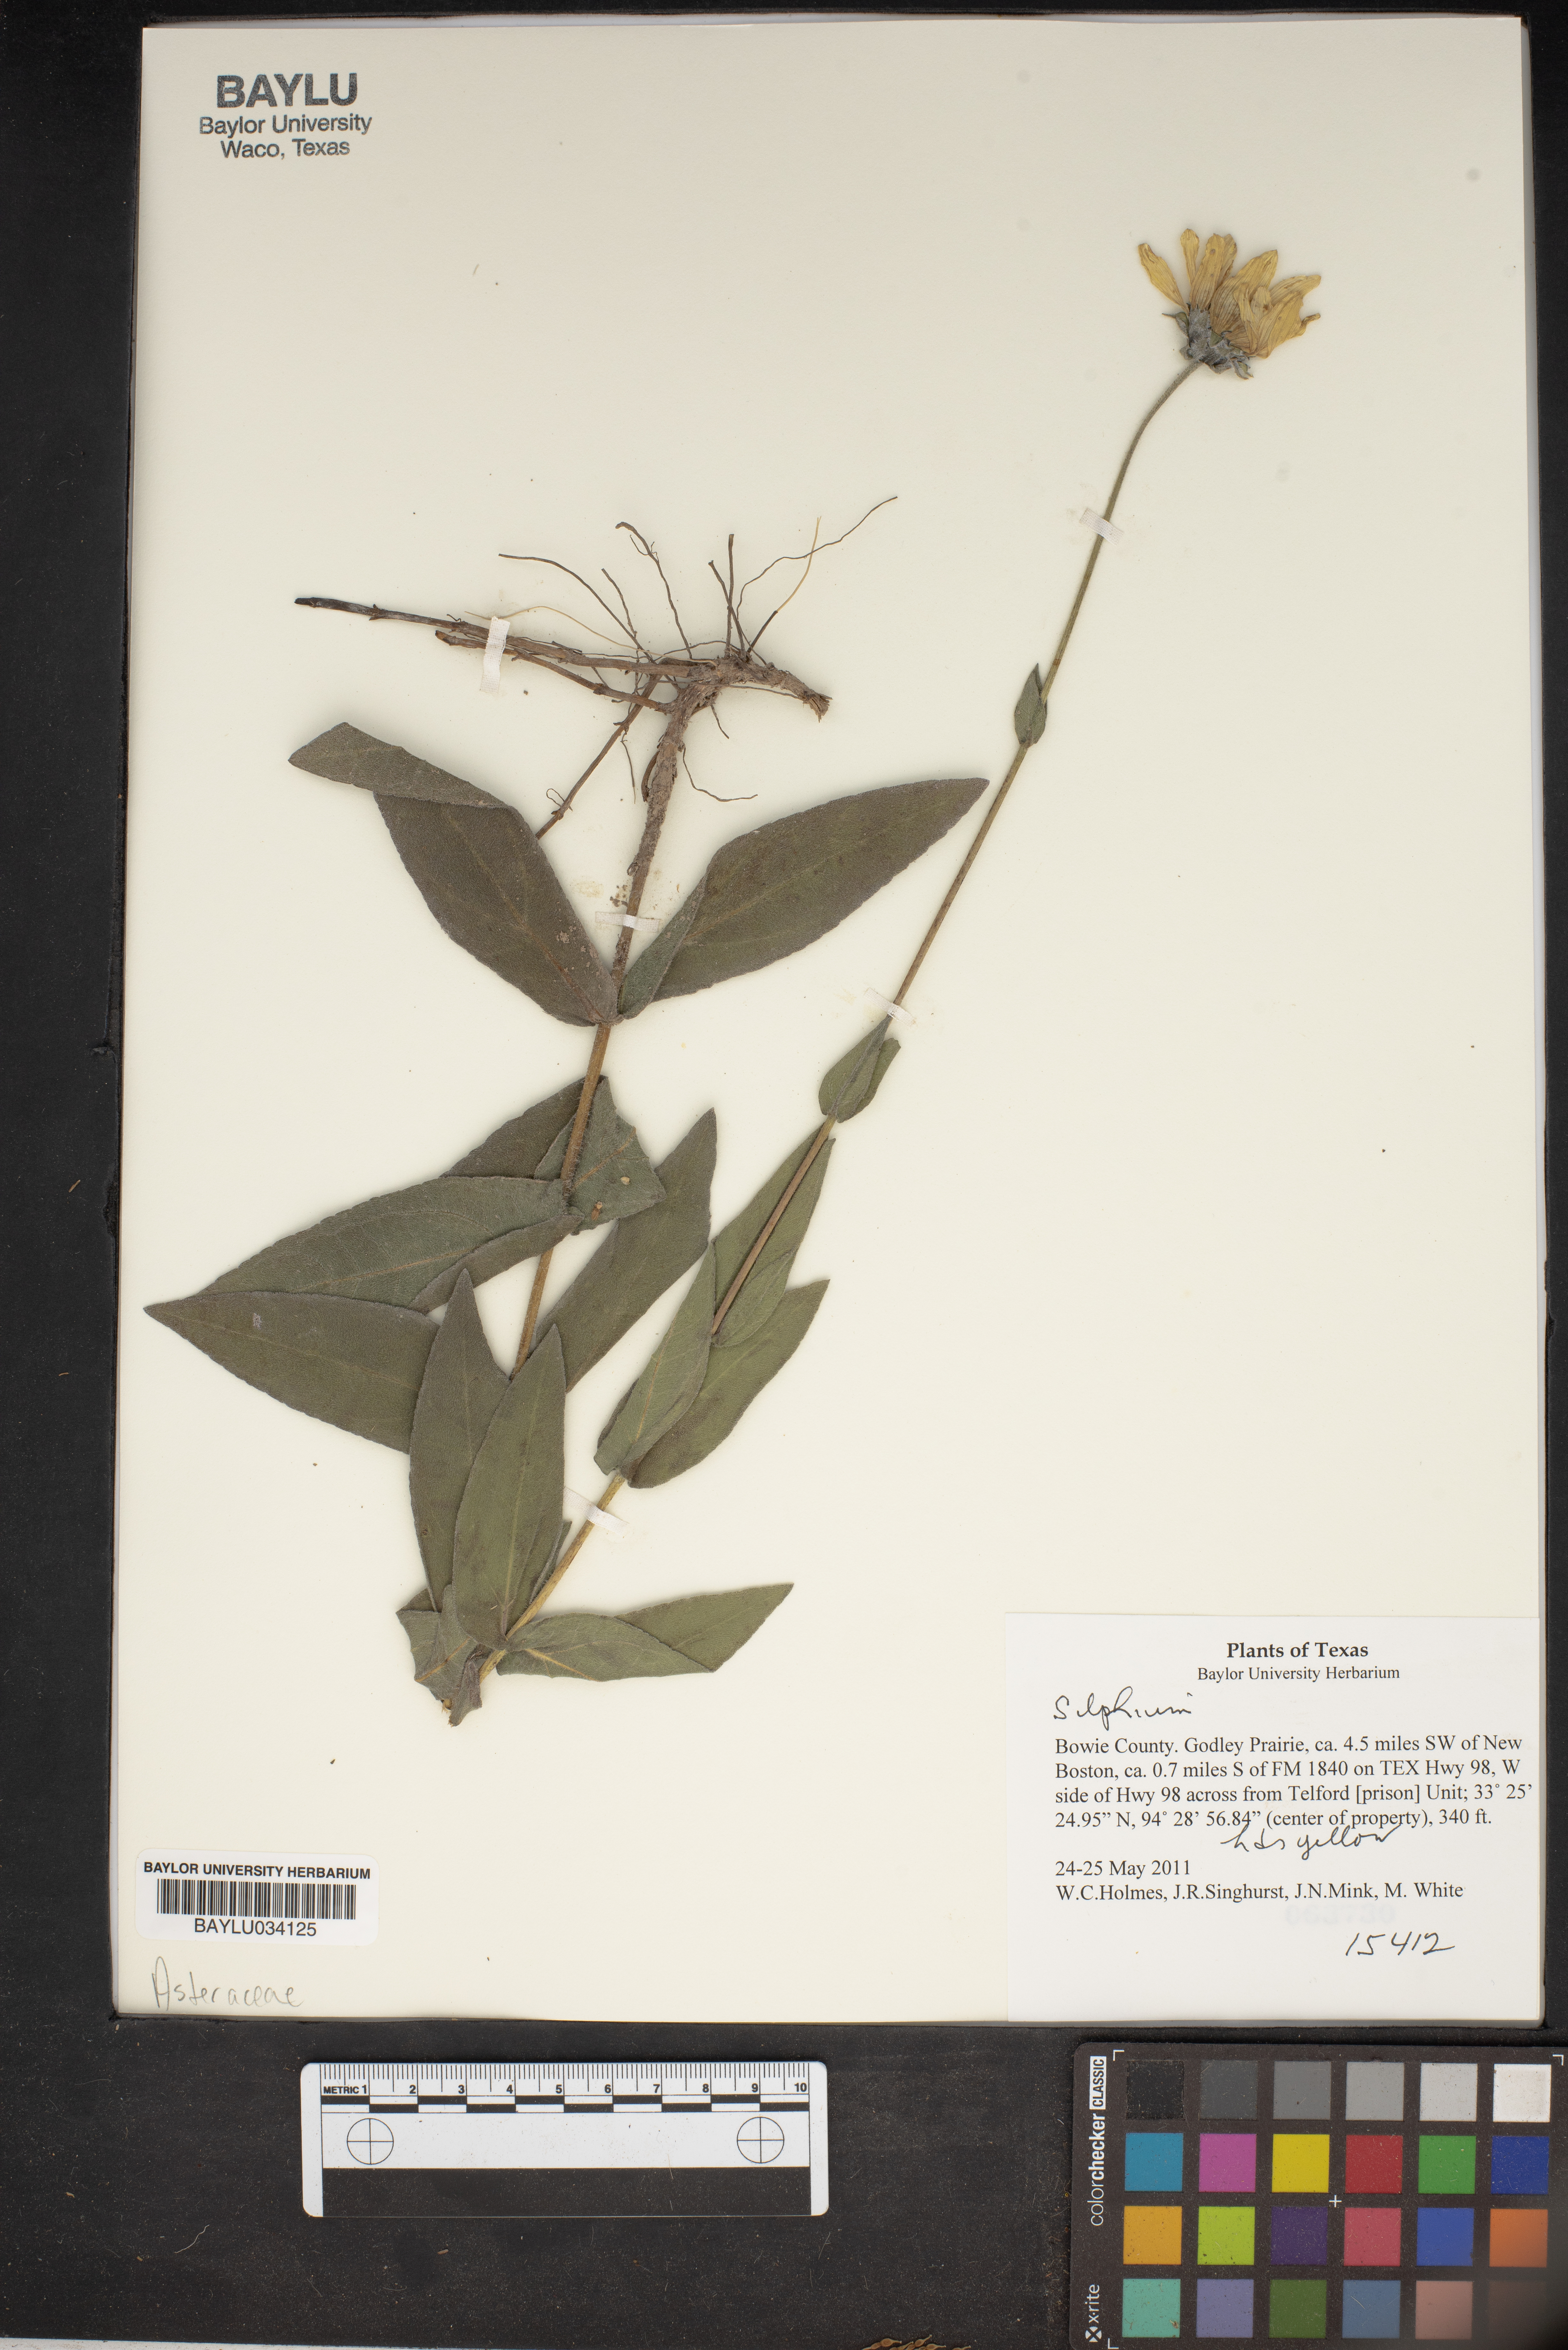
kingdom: Plantae
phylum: Tracheophyta
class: Magnoliopsida
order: Asterales
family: Asteraceae
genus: Silphium
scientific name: Silphium
